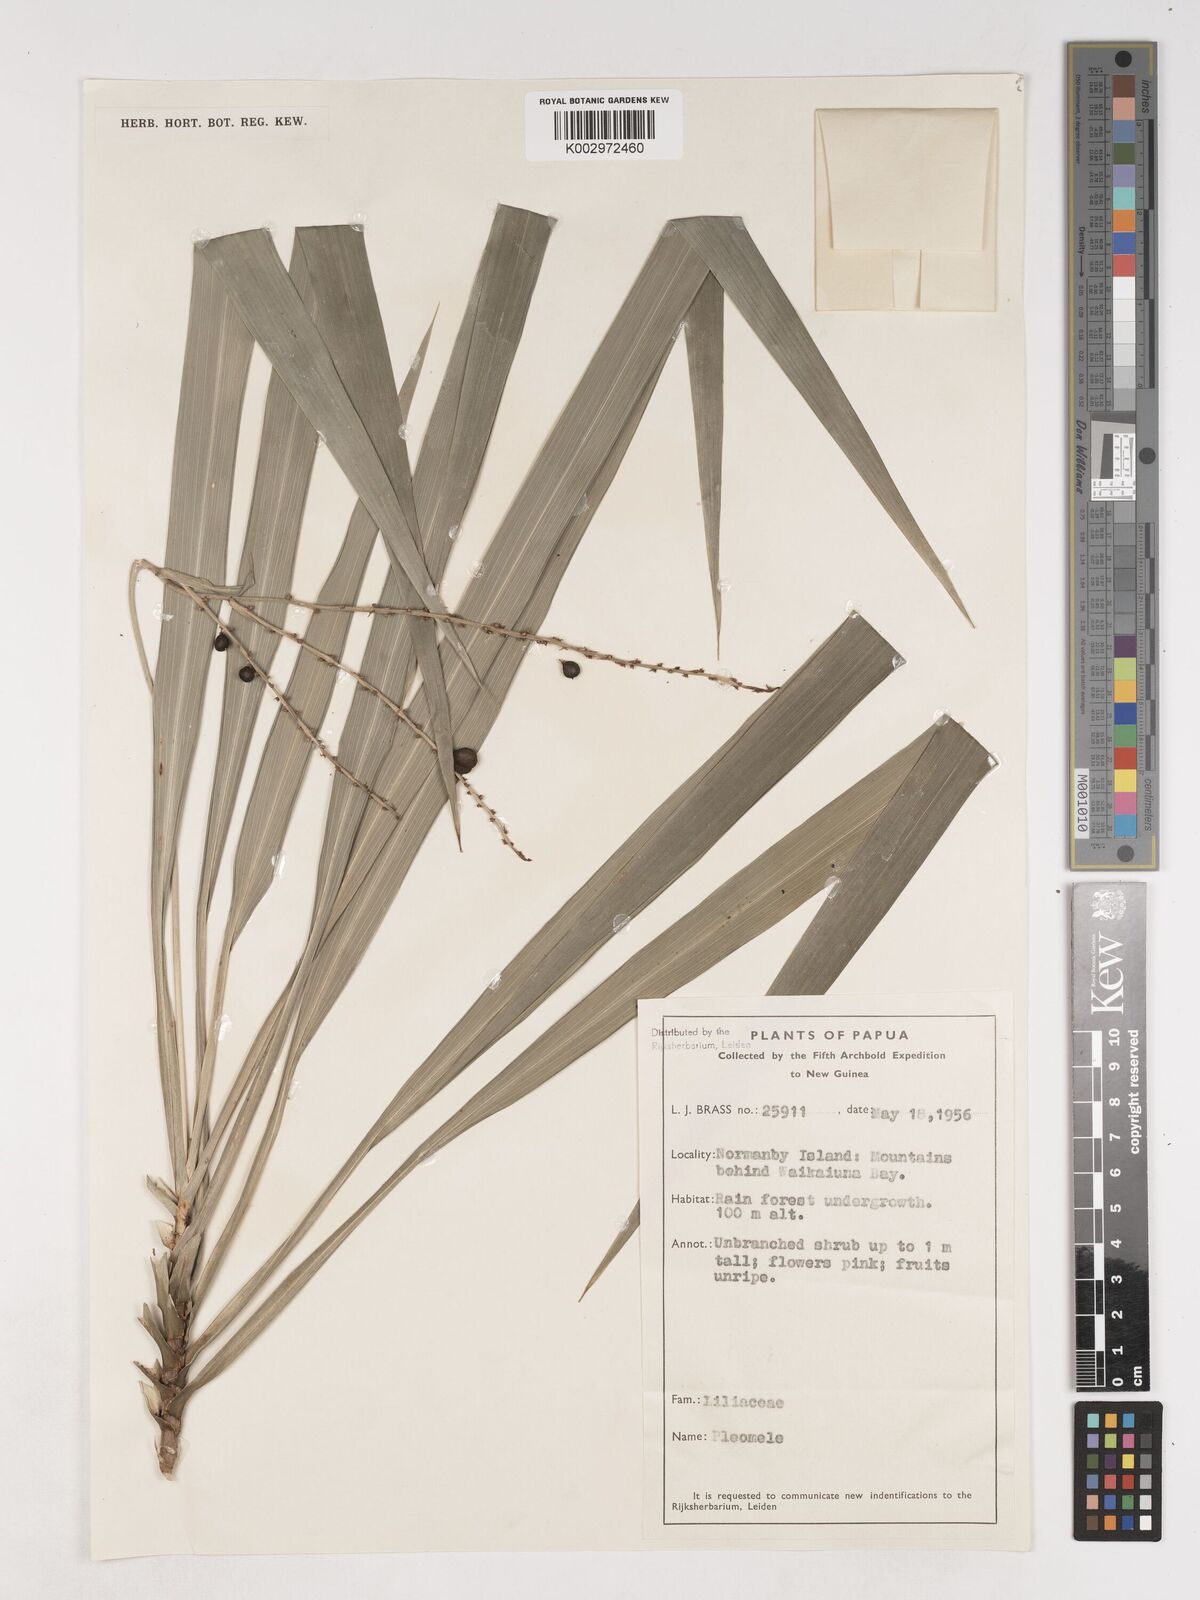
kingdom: Plantae
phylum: Tracheophyta
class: Liliopsida
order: Asparagales
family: Asparagaceae
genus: Cordyline
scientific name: Cordyline angustissima
